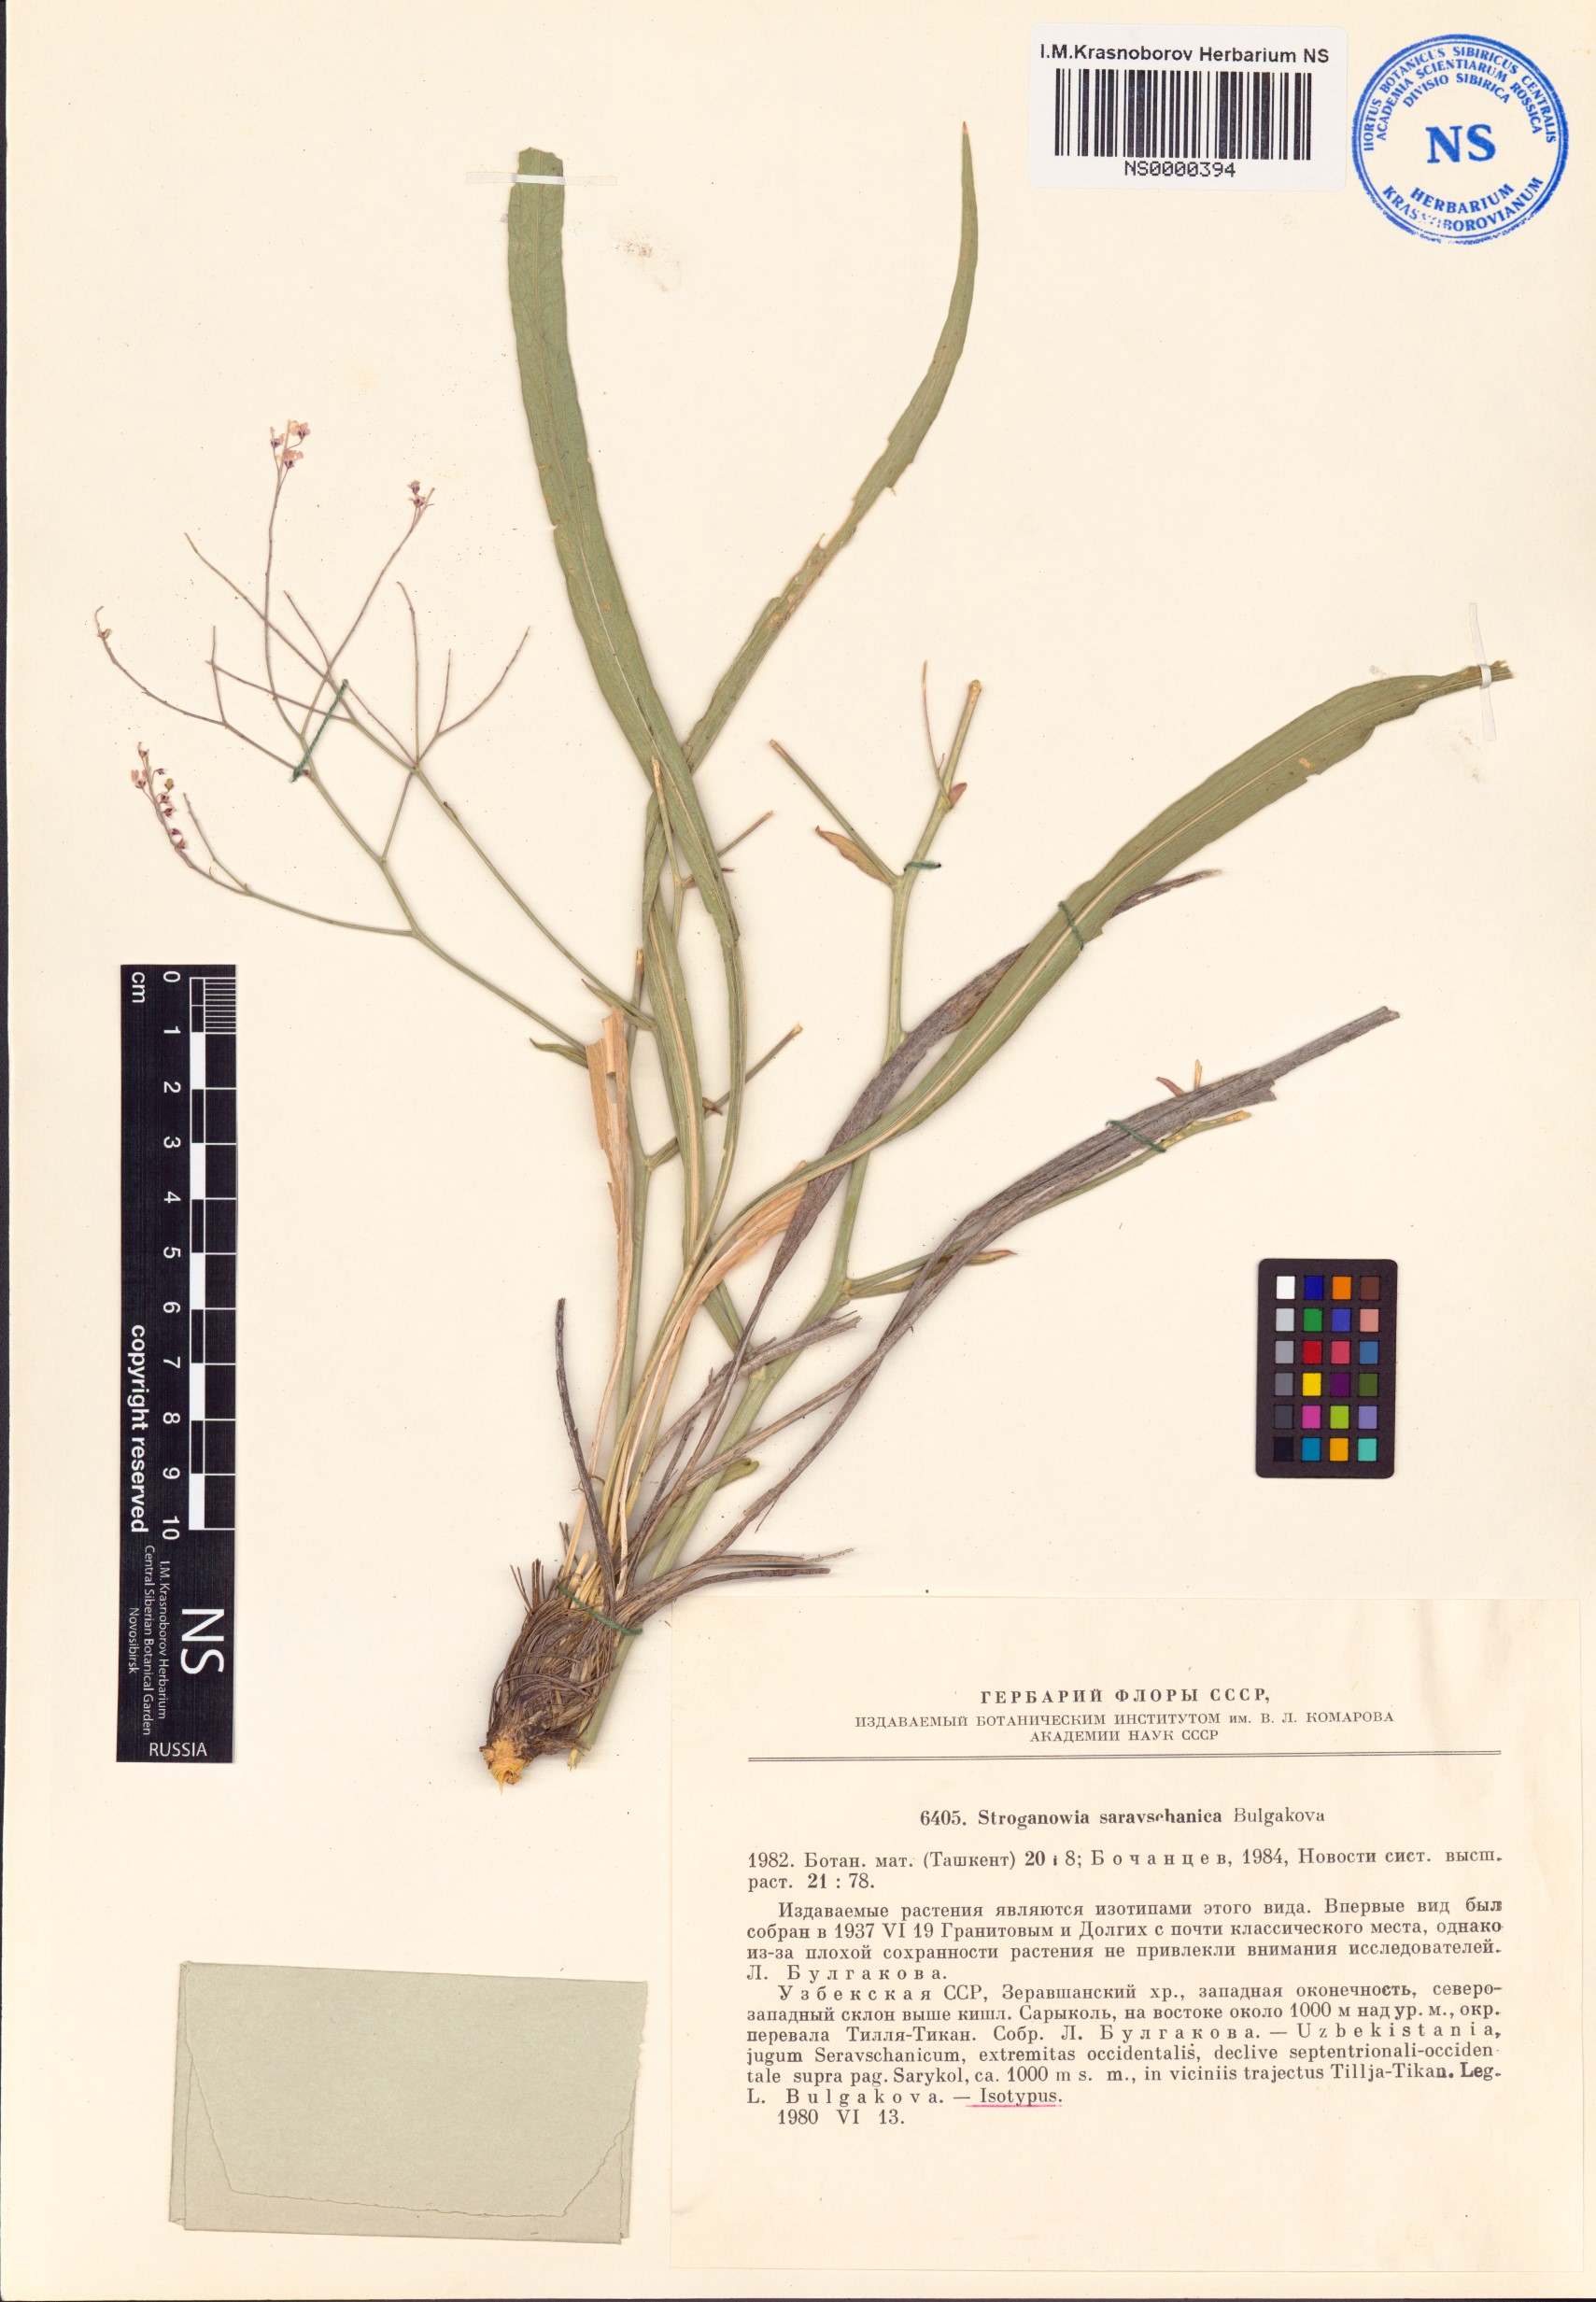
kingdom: Plantae
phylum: Tracheophyta
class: Magnoliopsida
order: Brassicales
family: Brassicaceae
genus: Lepidium
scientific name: Lepidium uzbekistanicum
